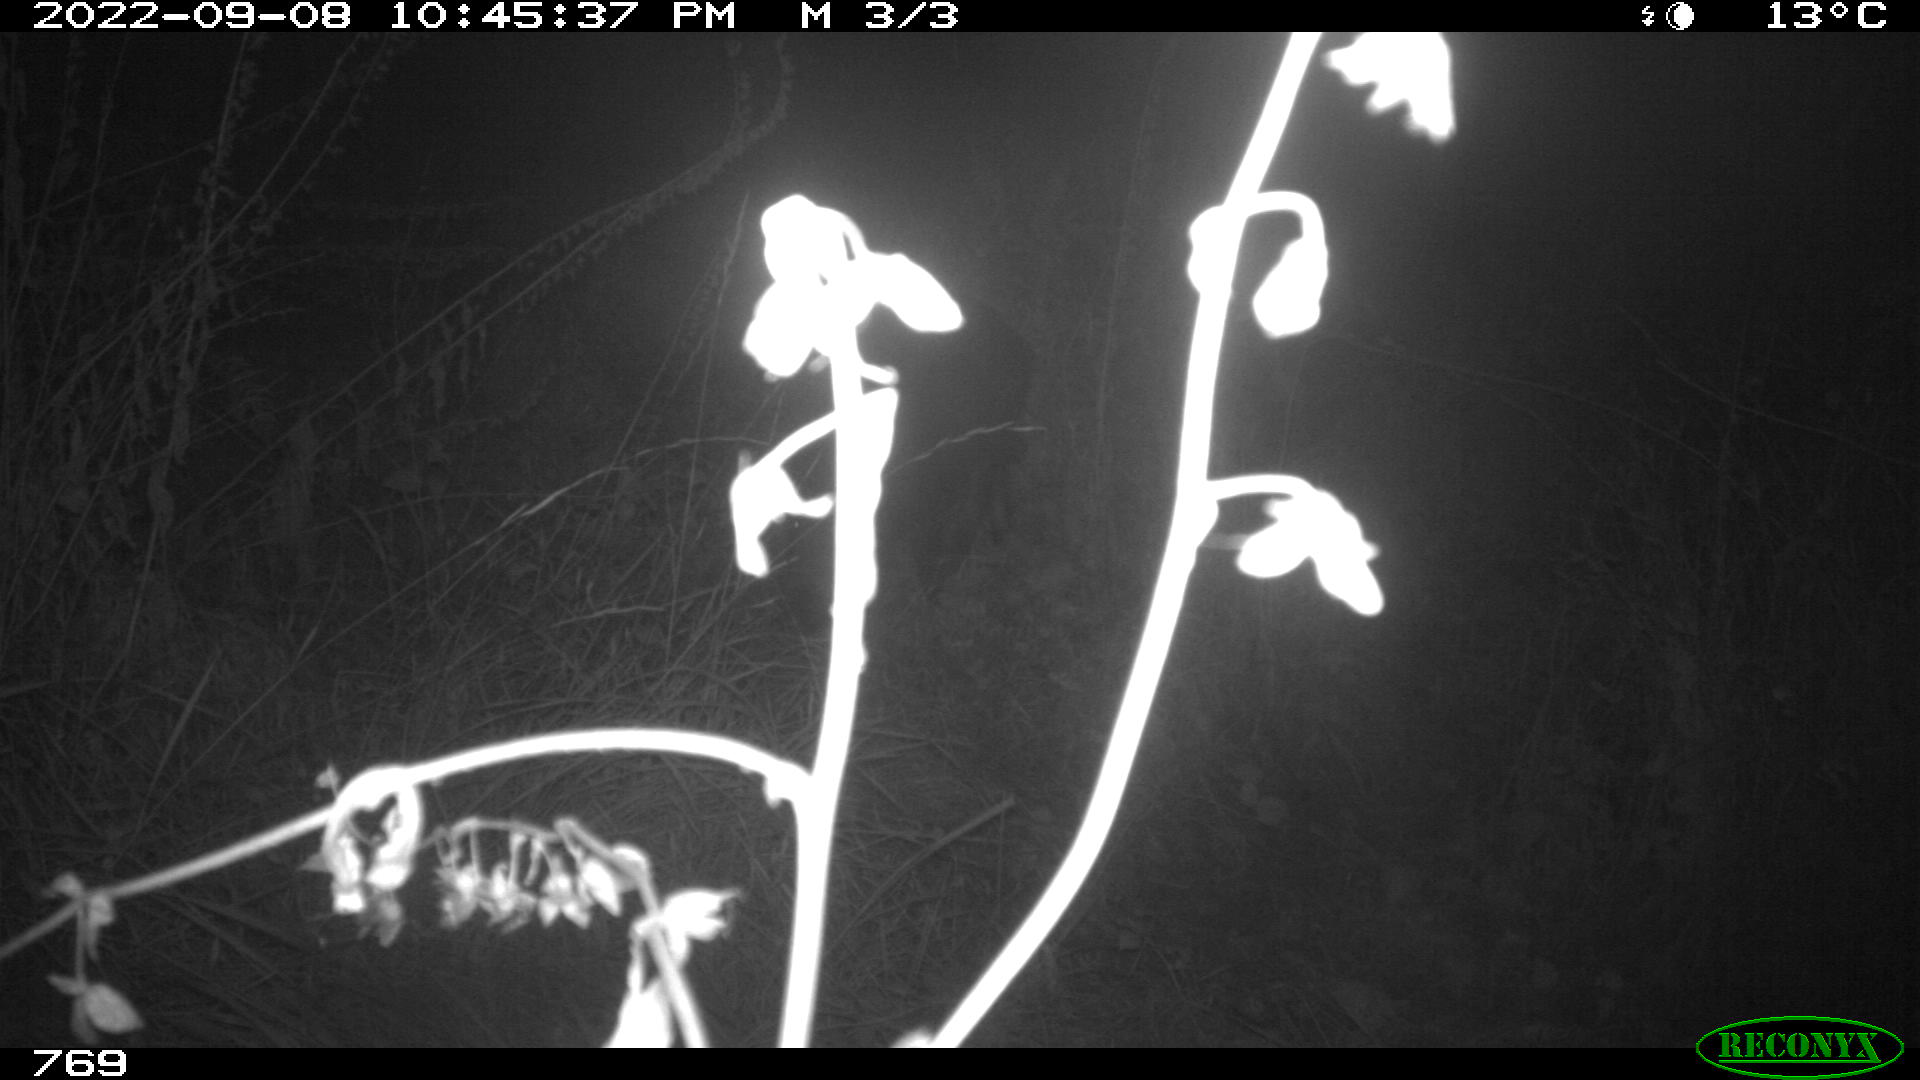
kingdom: Animalia
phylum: Chordata
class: Mammalia
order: Artiodactyla
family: Suidae
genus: Sus
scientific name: Sus scrofa
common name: Wild boar
